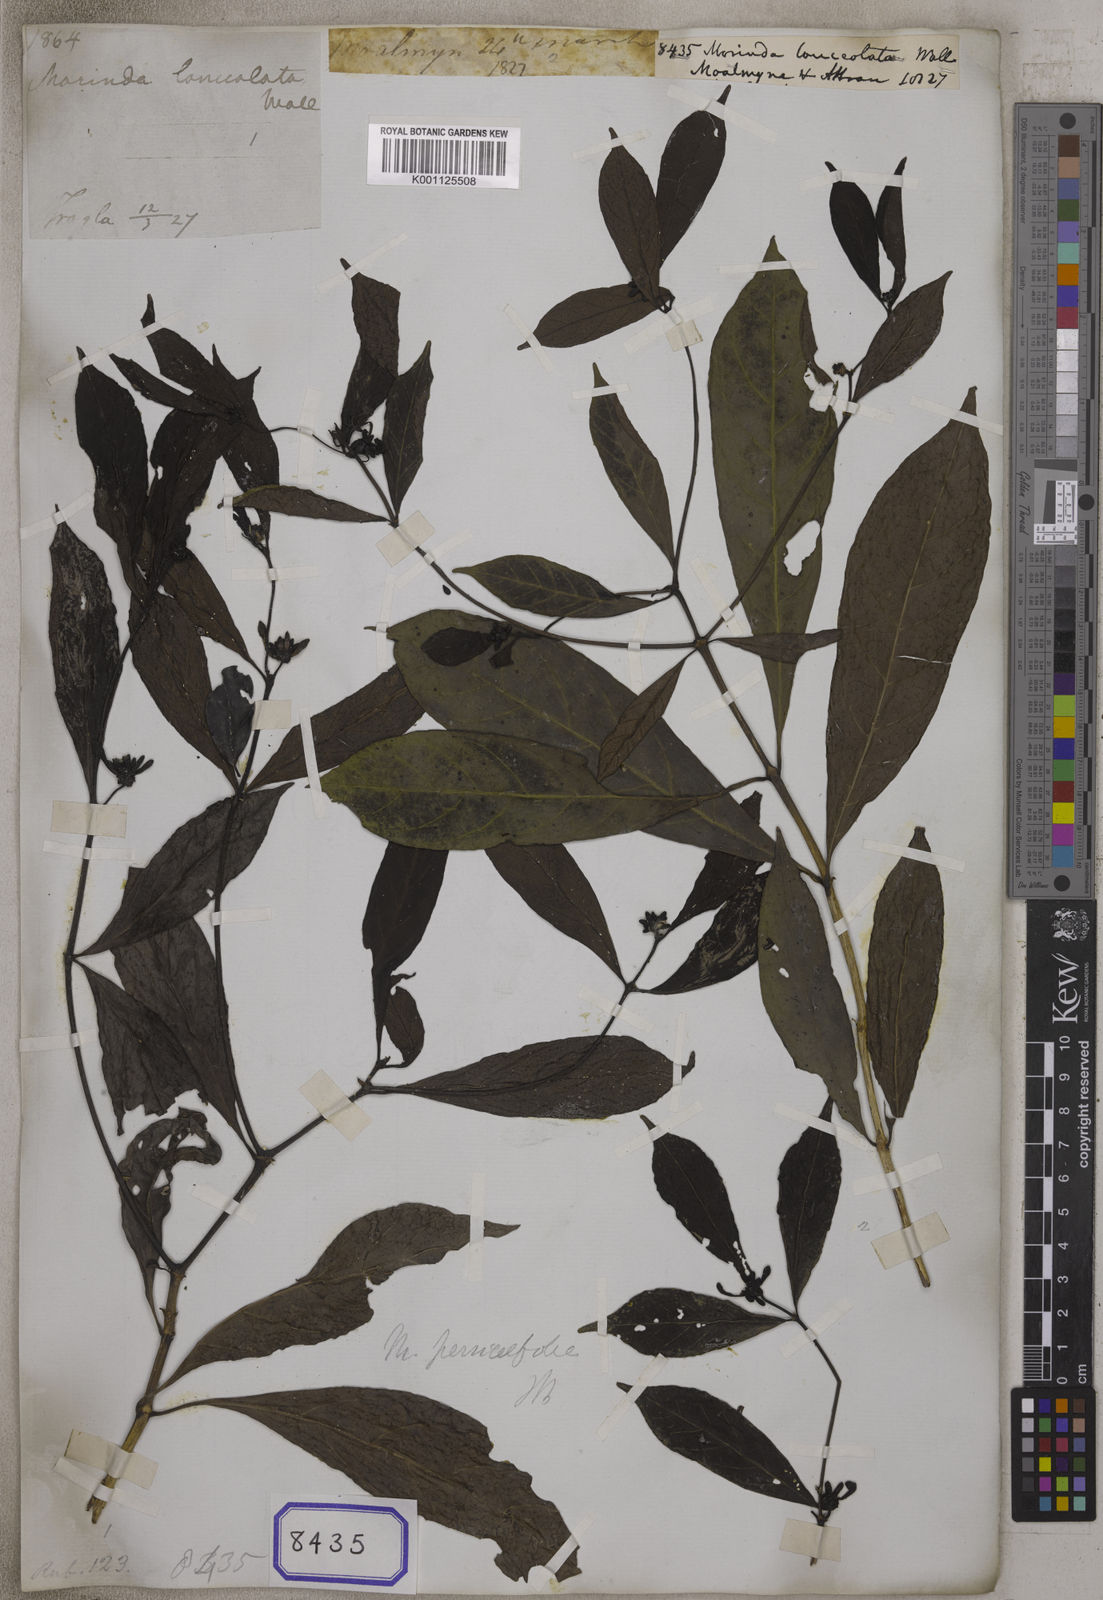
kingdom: Plantae
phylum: Tracheophyta
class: Magnoliopsida
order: Gentianales
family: Rubiaceae
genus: Morinda
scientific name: Morinda persicifolia
